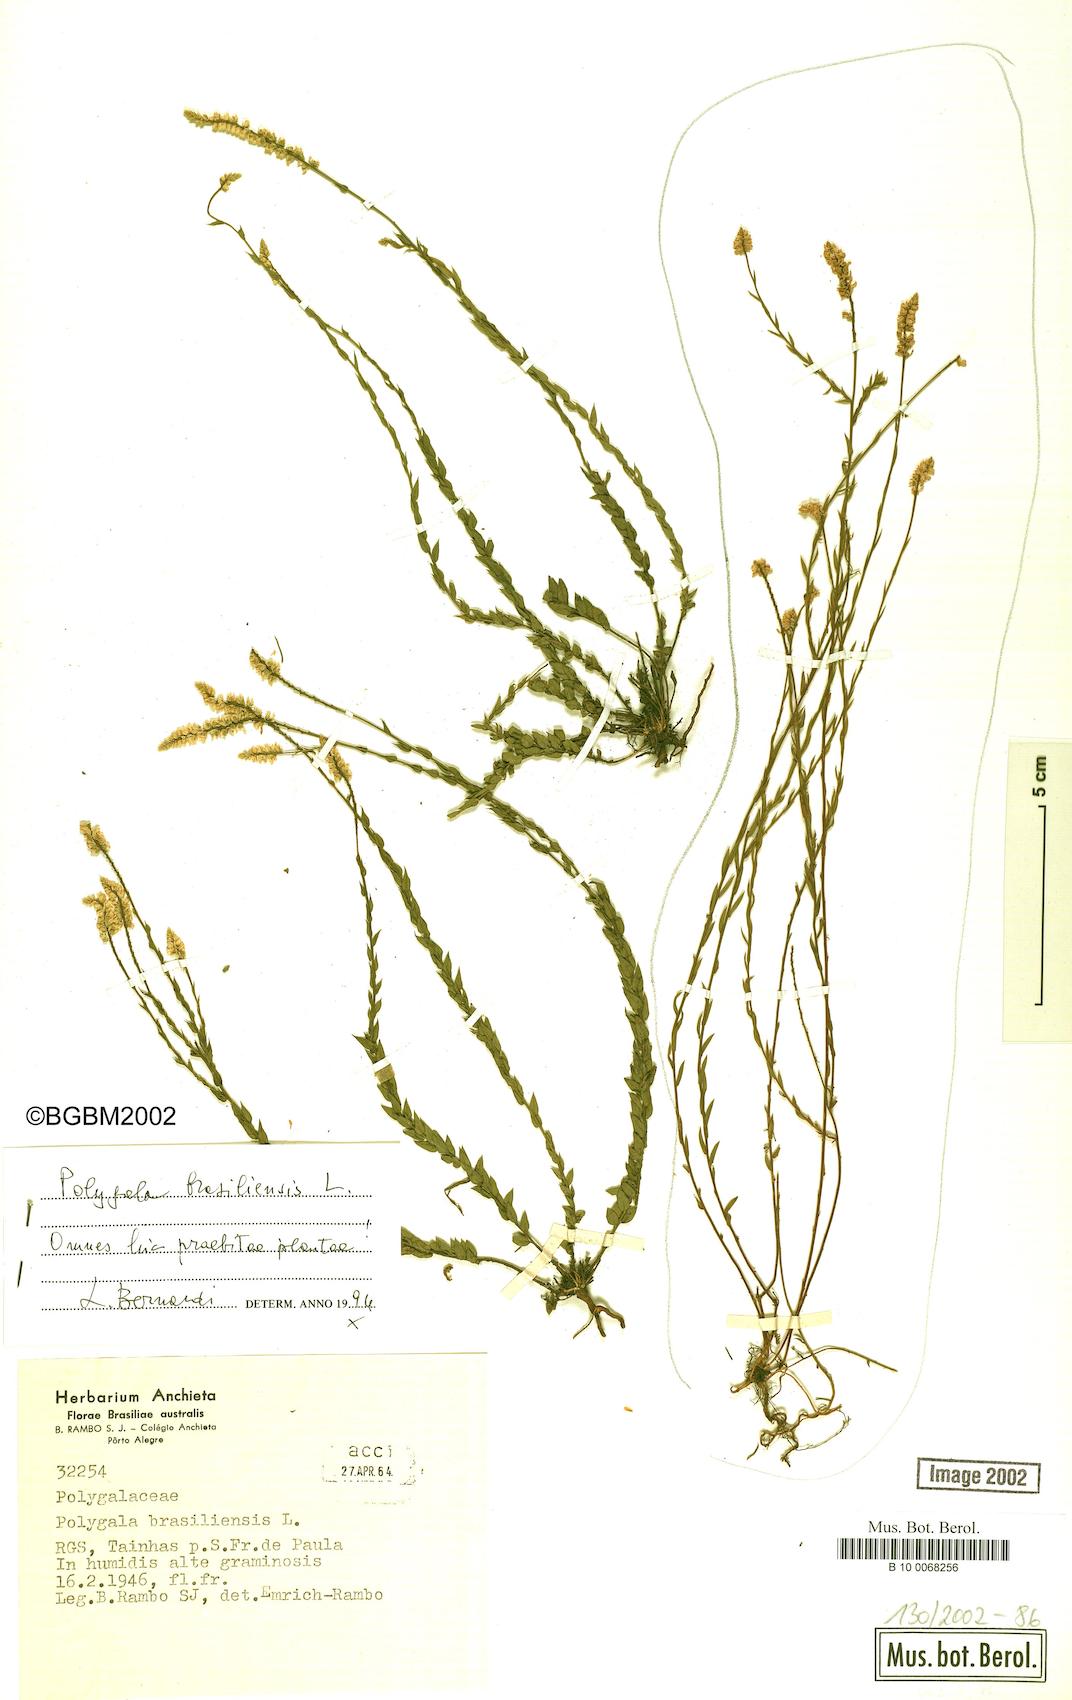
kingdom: Plantae
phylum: Tracheophyta
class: Magnoliopsida
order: Fabales
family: Polygalaceae
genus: Polygala
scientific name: Polygala brasiliensis
